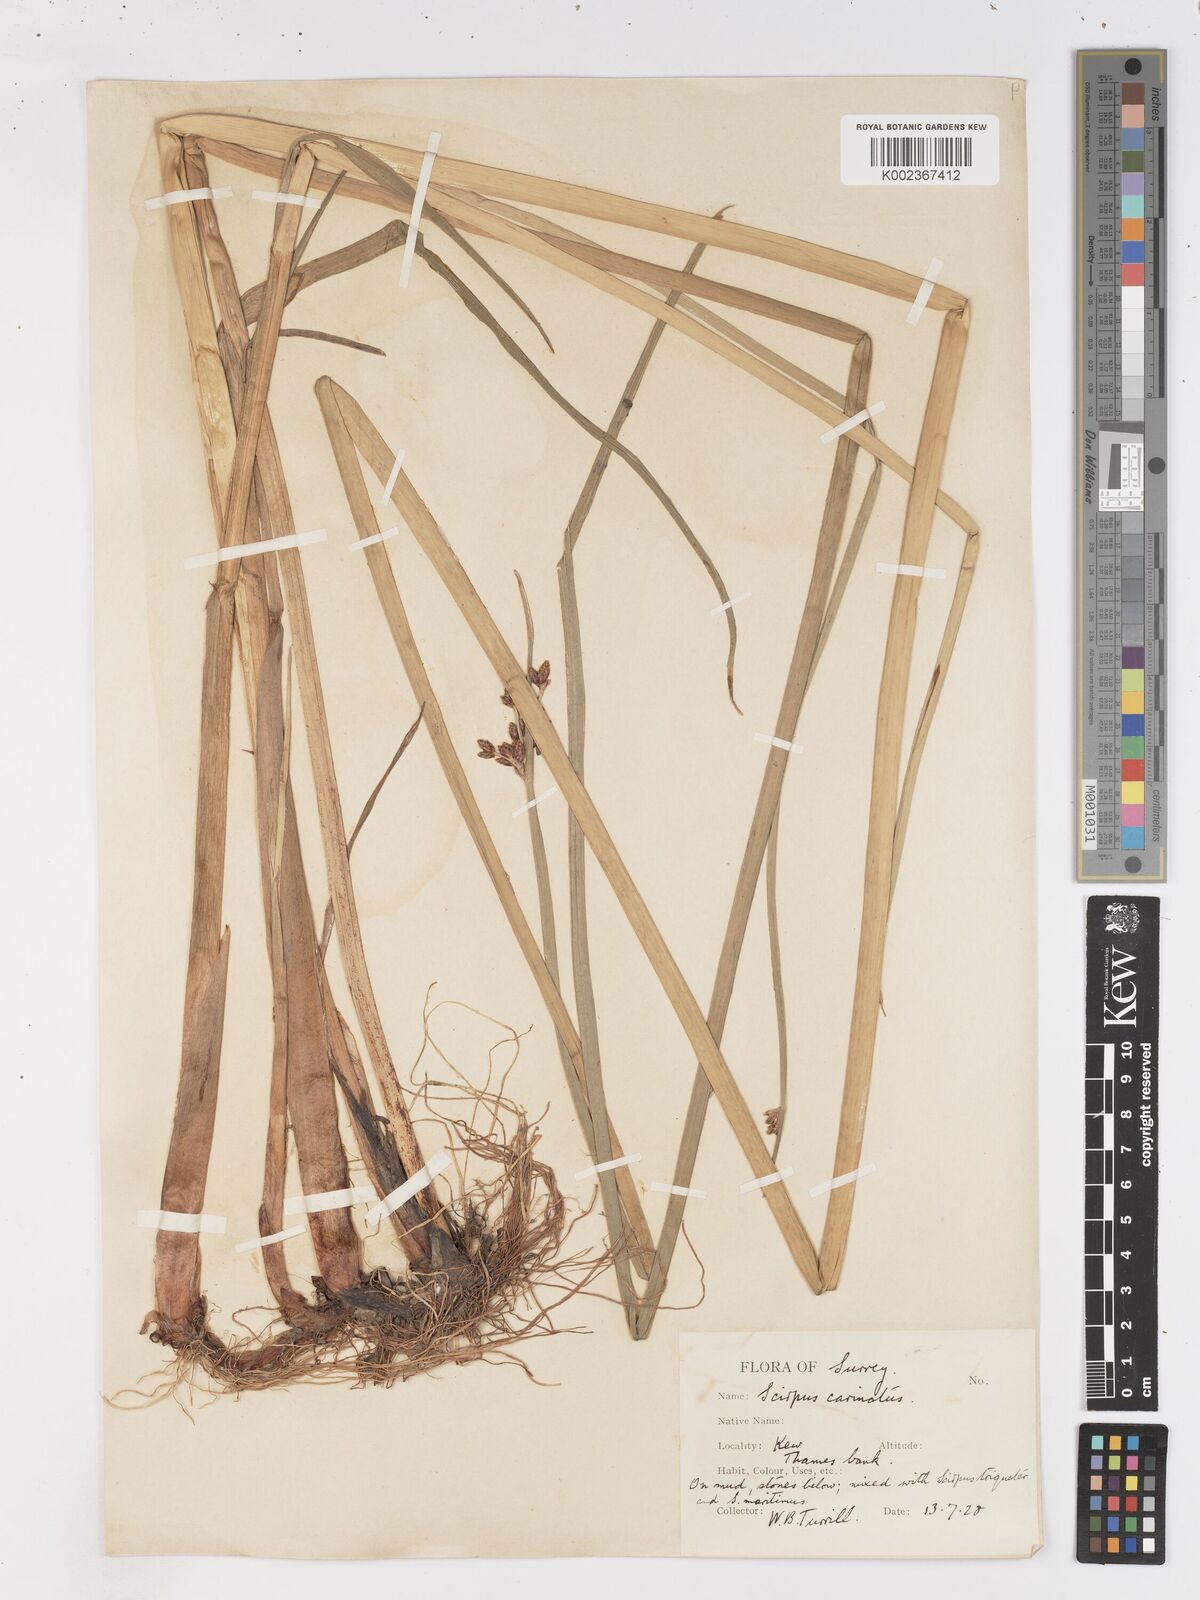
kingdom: Plantae
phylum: Tracheophyta
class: Liliopsida
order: Poales
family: Cyperaceae
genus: Isolepis
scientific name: Isolepis carinata
